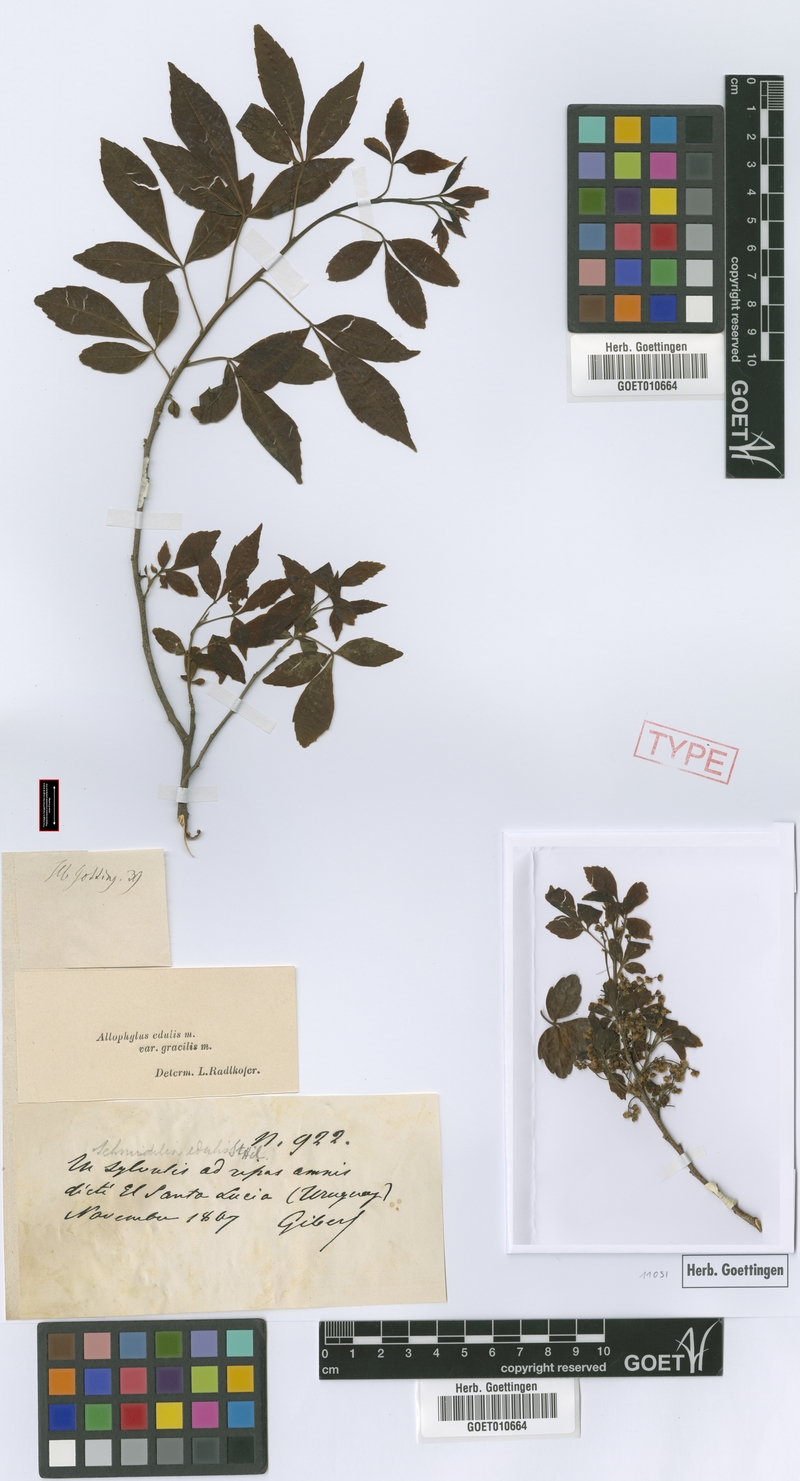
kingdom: Plantae
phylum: Tracheophyta
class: Magnoliopsida
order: Sapindales
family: Sapindaceae
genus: Allophylus
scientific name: Allophylus edulis
